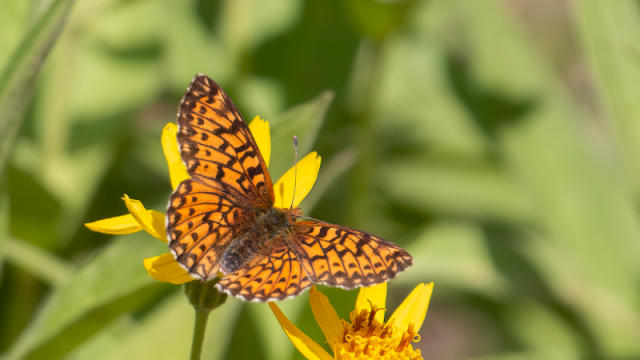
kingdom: Animalia
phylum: Arthropoda
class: Insecta
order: Lepidoptera
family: Nymphalidae
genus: Boloria
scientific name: Boloria chariclea
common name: Arctic Fritillary
